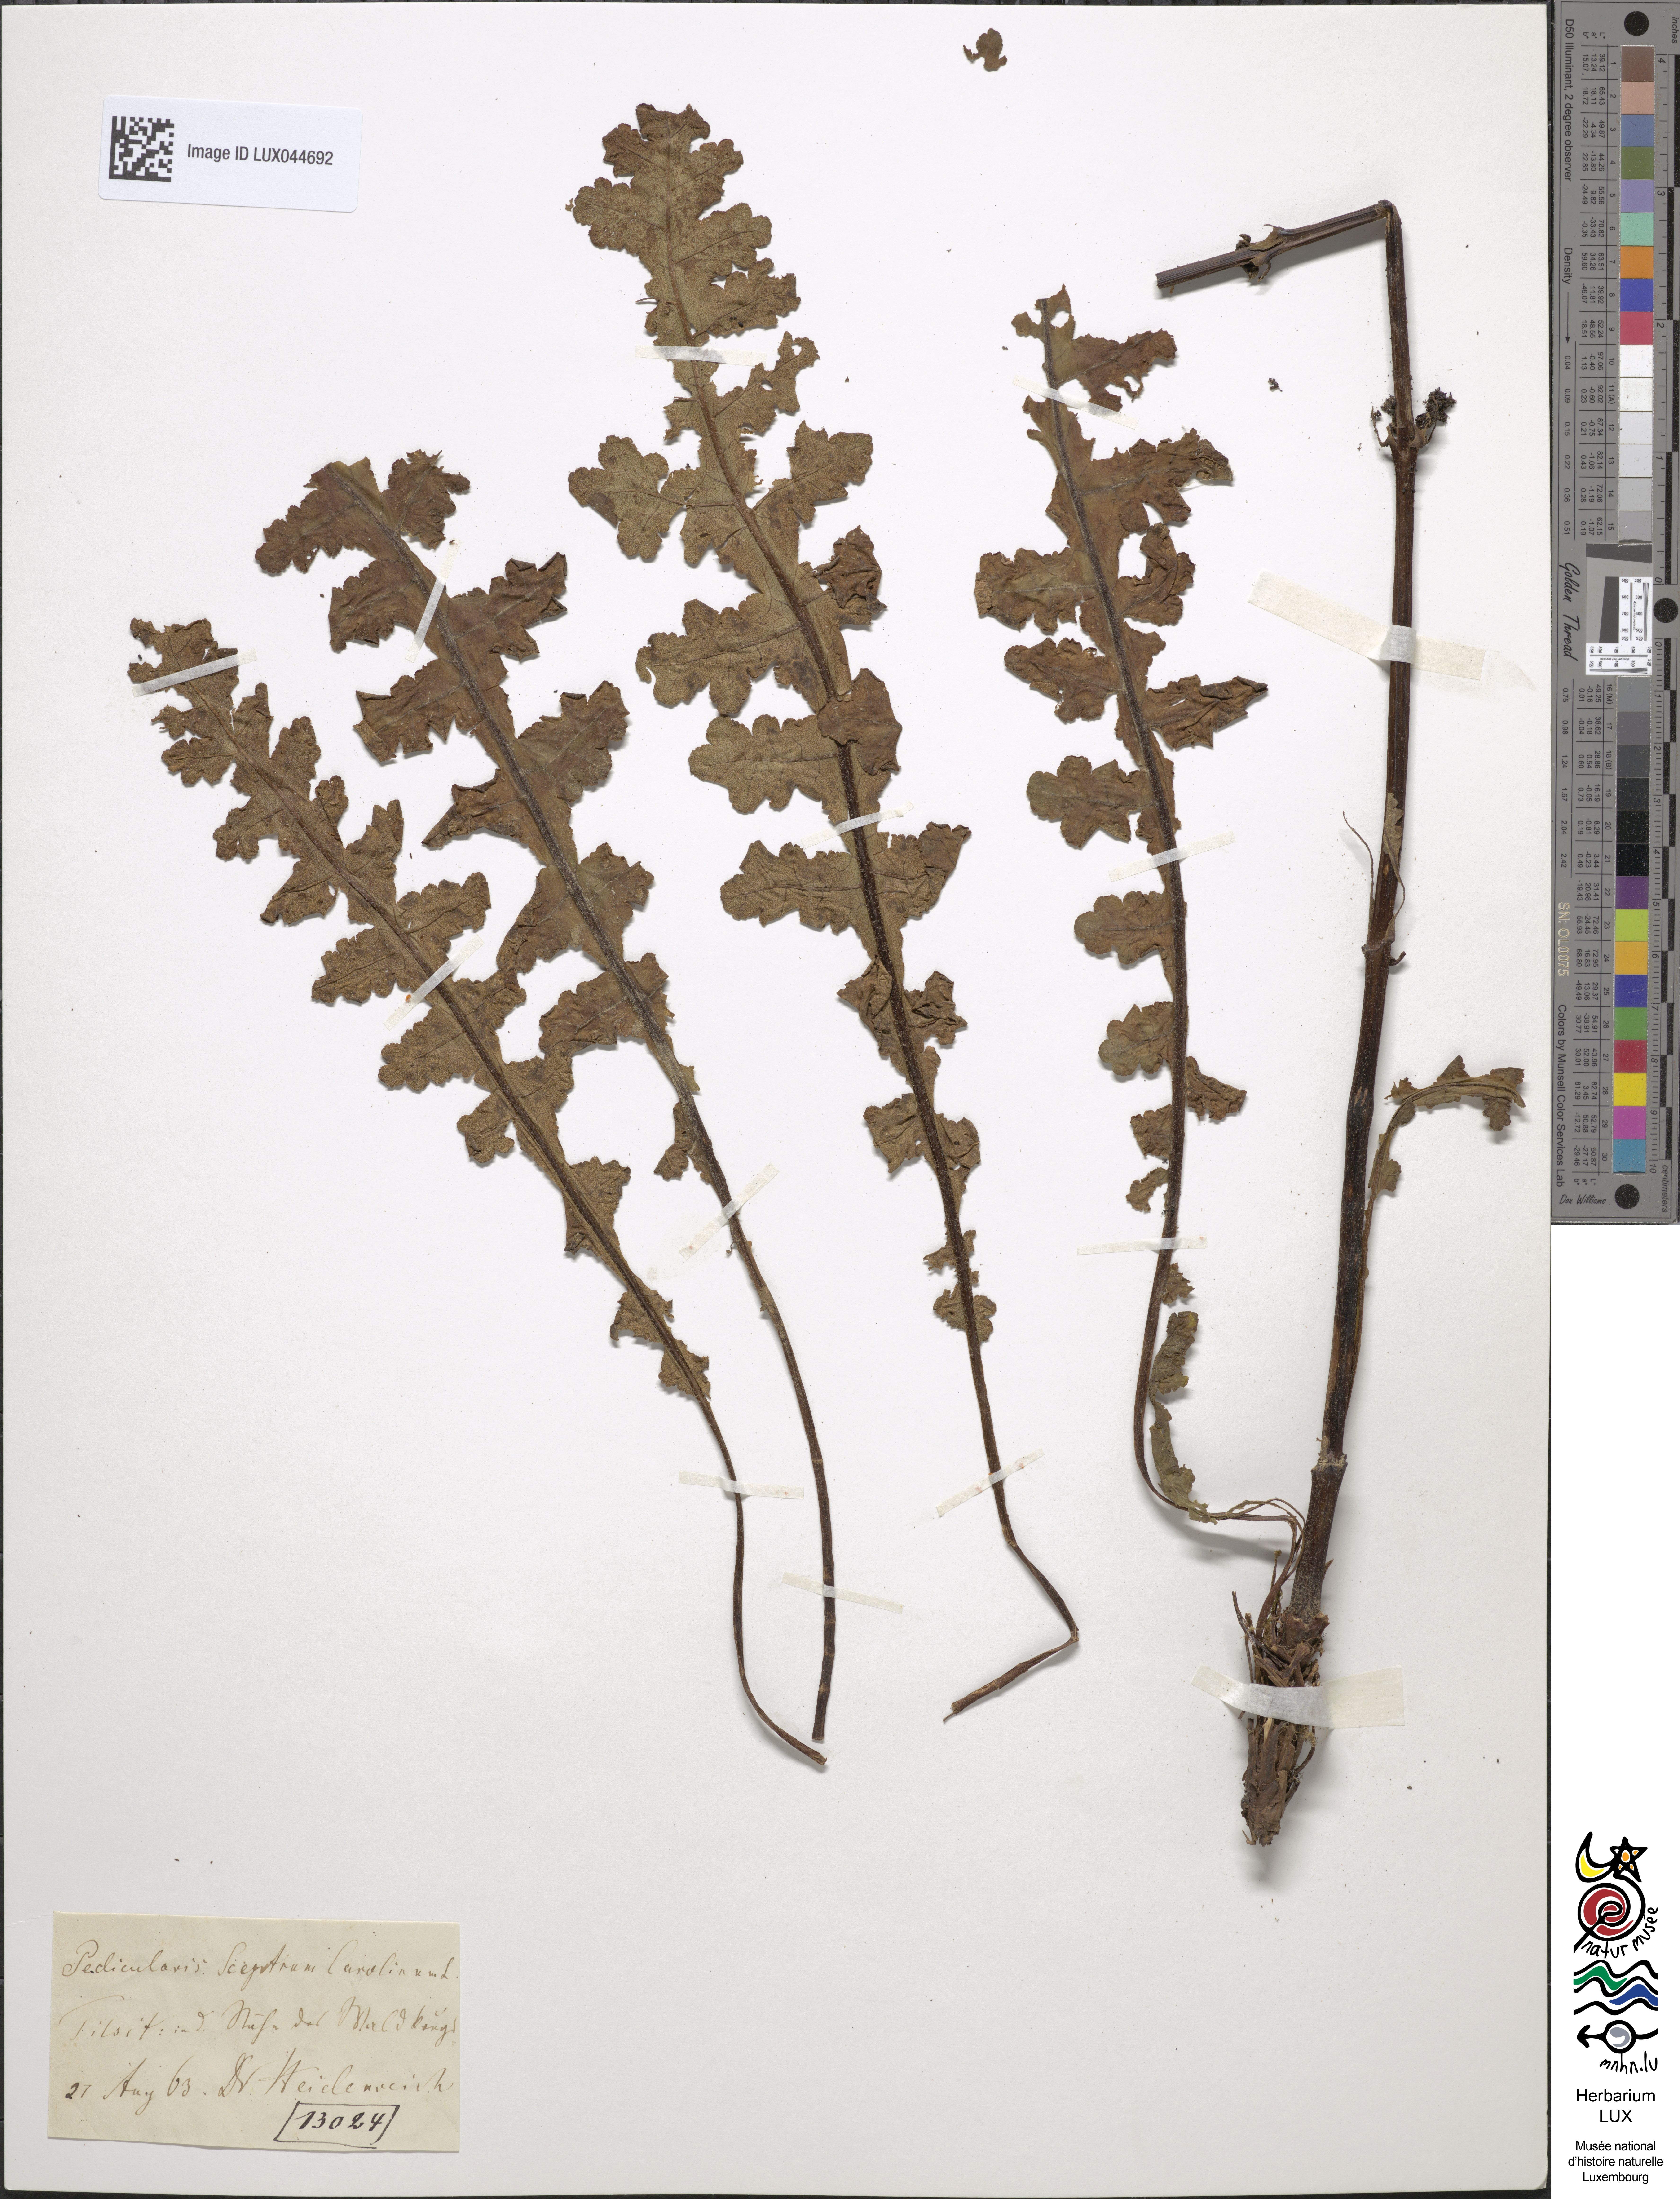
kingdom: Plantae
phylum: Tracheophyta
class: Magnoliopsida
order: Lamiales
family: Orobanchaceae
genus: Pedicularis
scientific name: Pedicularis sceptrum-carolinum
